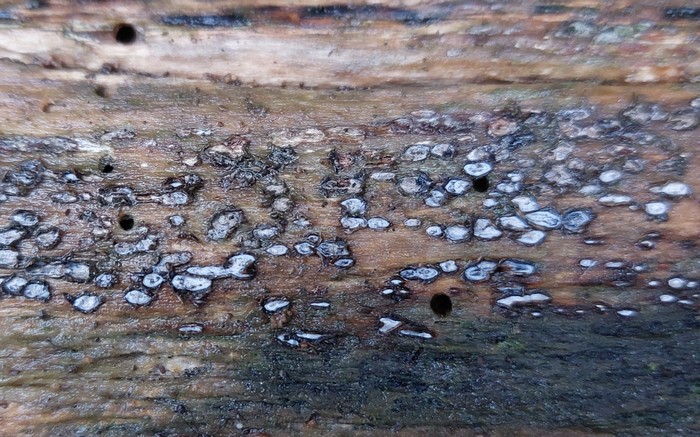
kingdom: Fungi
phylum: Ascomycota
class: Leotiomycetes
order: Chaetomellales
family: Marthamycetaceae
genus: Propolis
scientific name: Propolis farinosa
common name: almindelig vedsprængerskive
